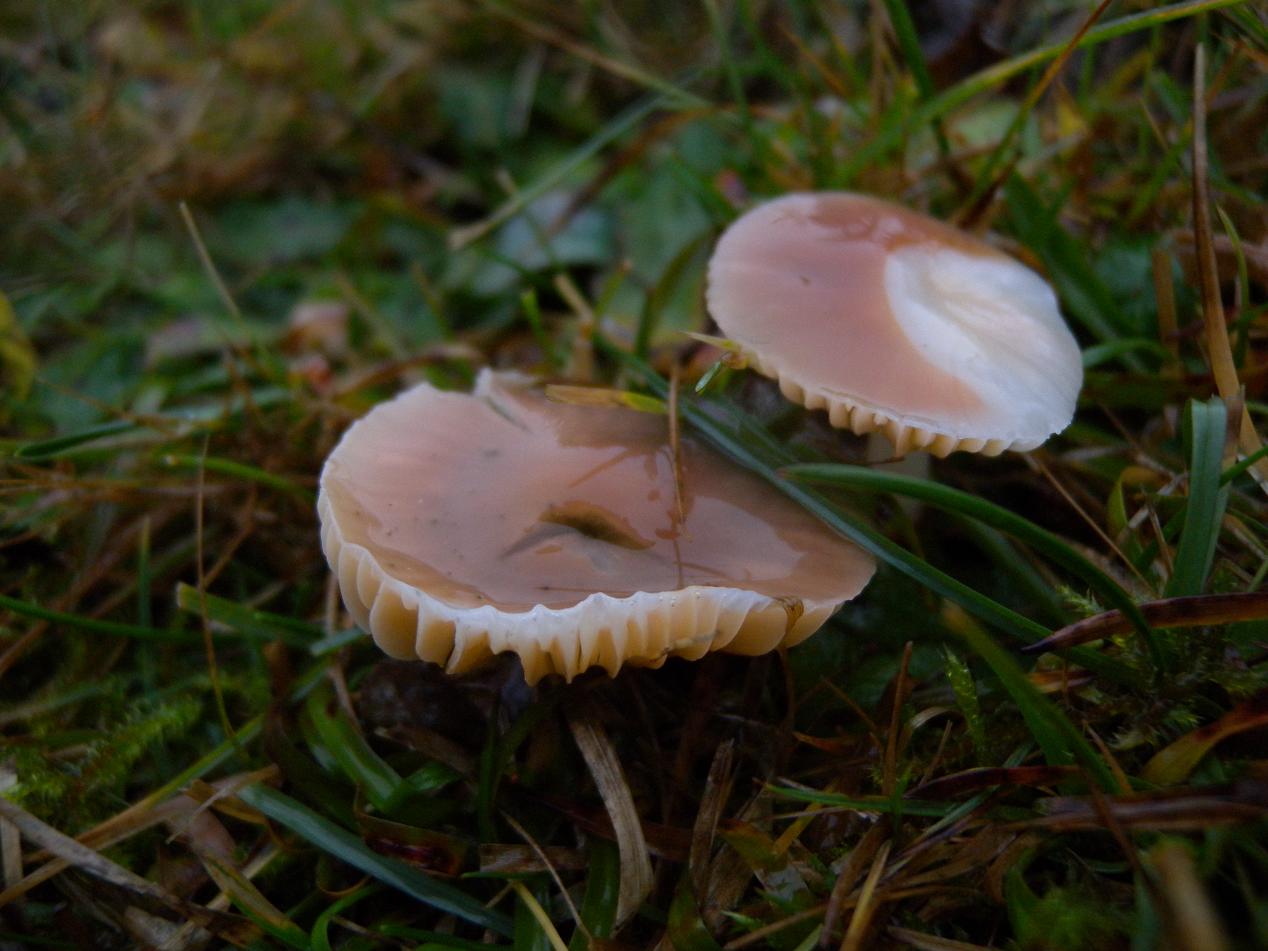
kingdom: Fungi
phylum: Basidiomycota
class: Agaricomycetes
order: Agaricales
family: Hygrophoraceae
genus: Gliophorus
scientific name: Gliophorus psittacinus
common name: papegøje-vokshat
